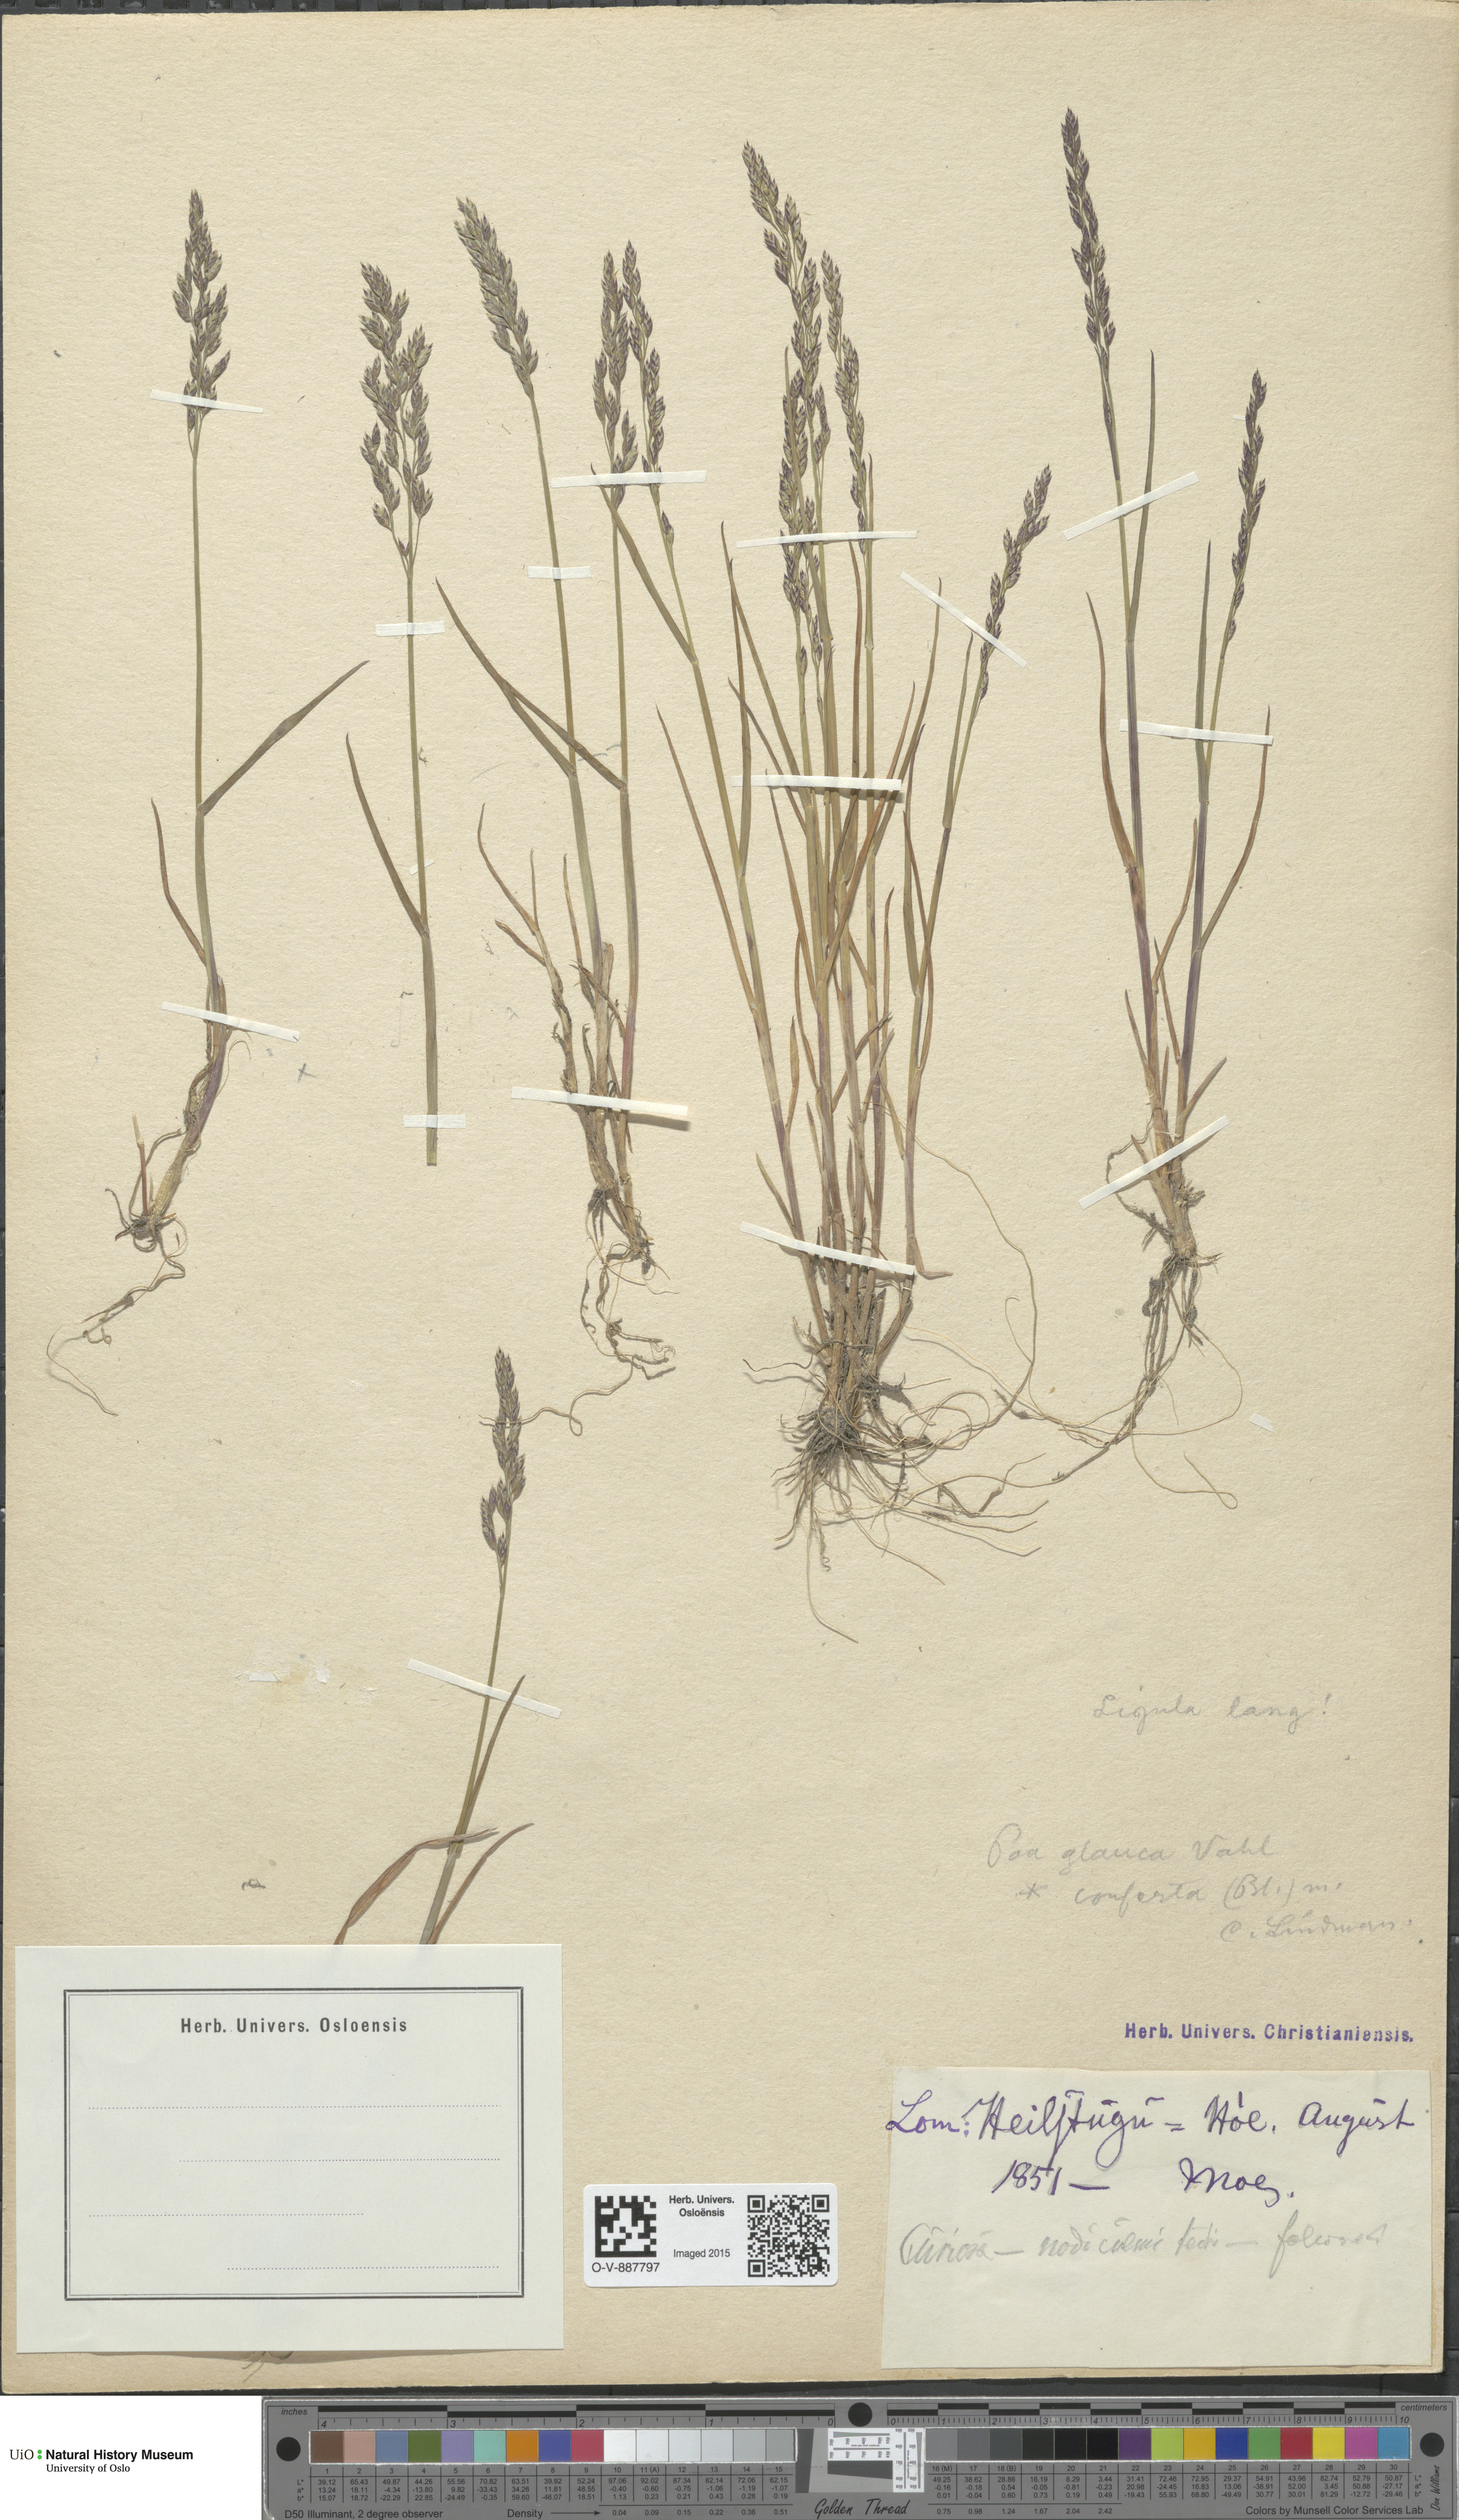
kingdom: Plantae
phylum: Tracheophyta
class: Liliopsida
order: Poales
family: Poaceae
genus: Poa
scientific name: Poa glauca
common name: Glaucous bluegrass
